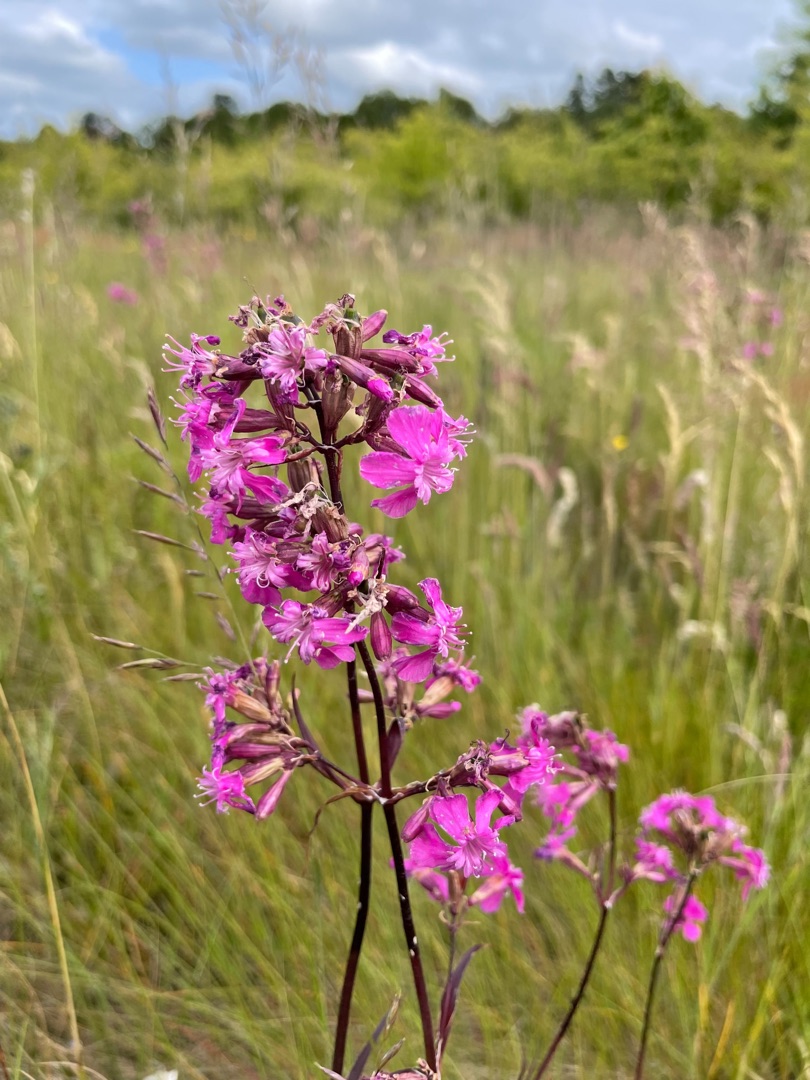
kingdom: Plantae
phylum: Tracheophyta
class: Magnoliopsida
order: Caryophyllales
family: Caryophyllaceae
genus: Viscaria
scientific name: Viscaria vulgaris
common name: Tjærenellike
